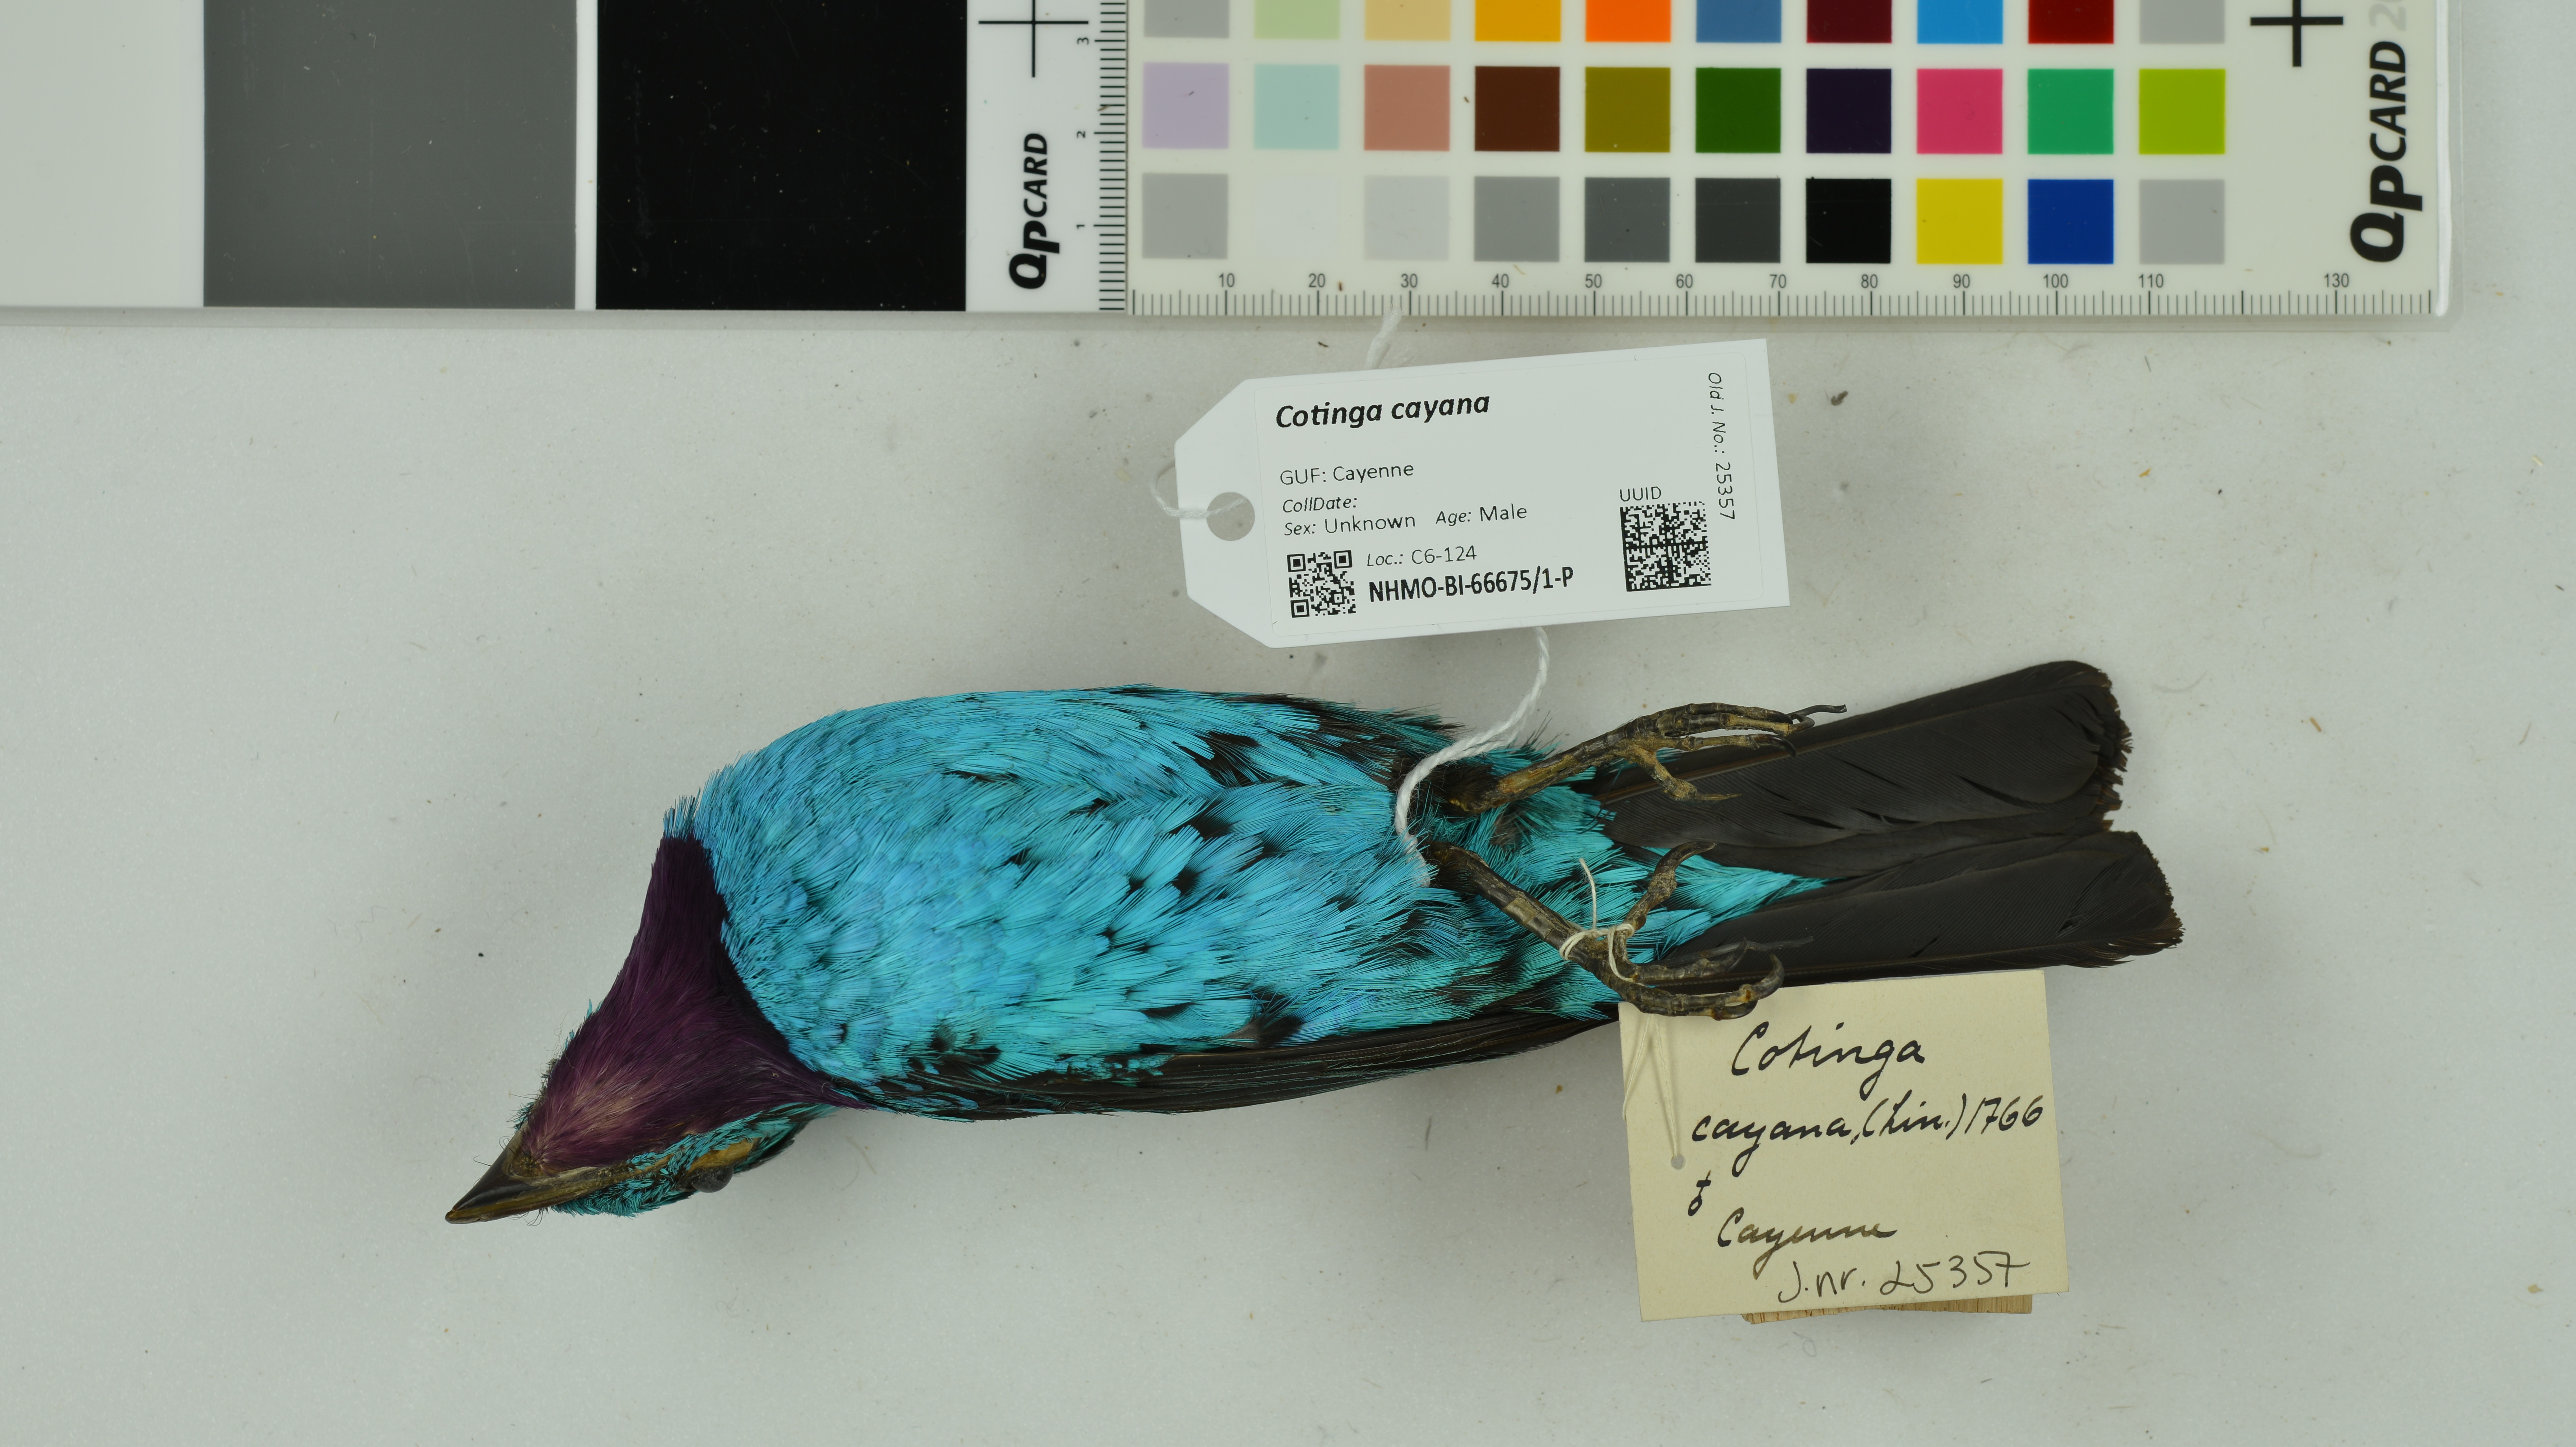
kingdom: Animalia
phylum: Chordata
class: Aves
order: Passeriformes
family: Cotingidae
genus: Cotinga
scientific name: Cotinga cayana
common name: Spangled cotinga
